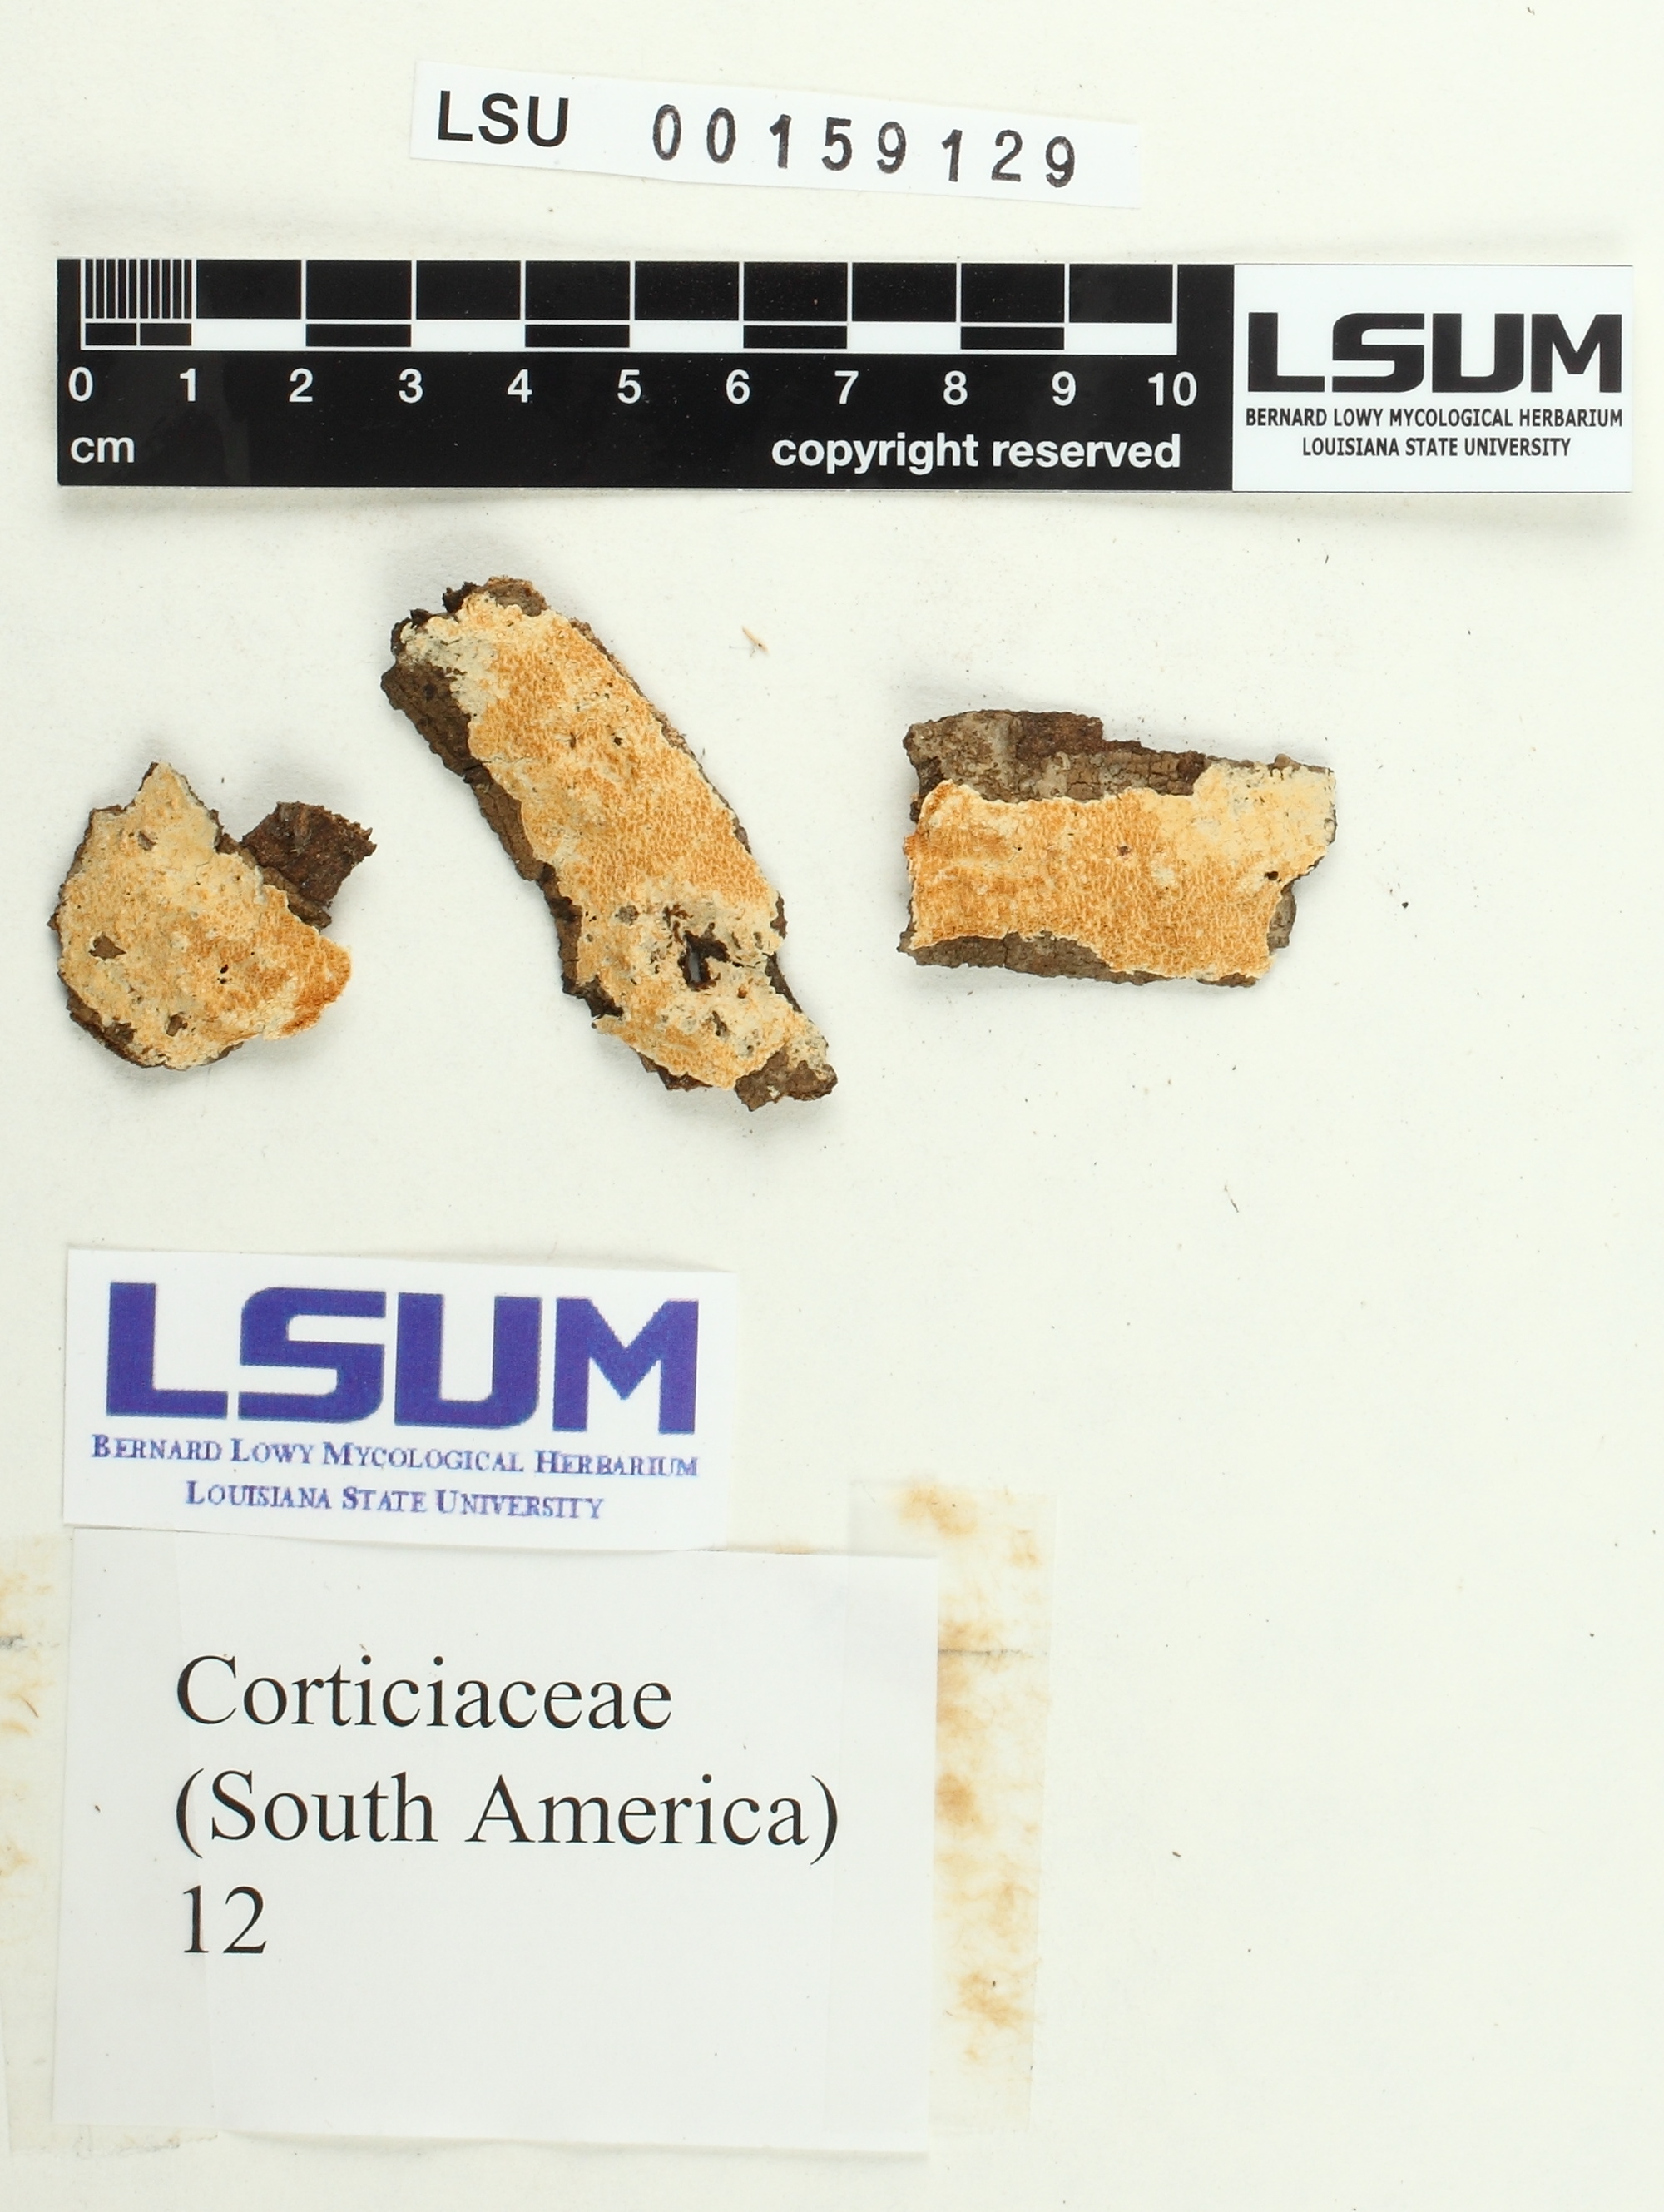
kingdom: Fungi
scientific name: Fungi
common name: Fungi
